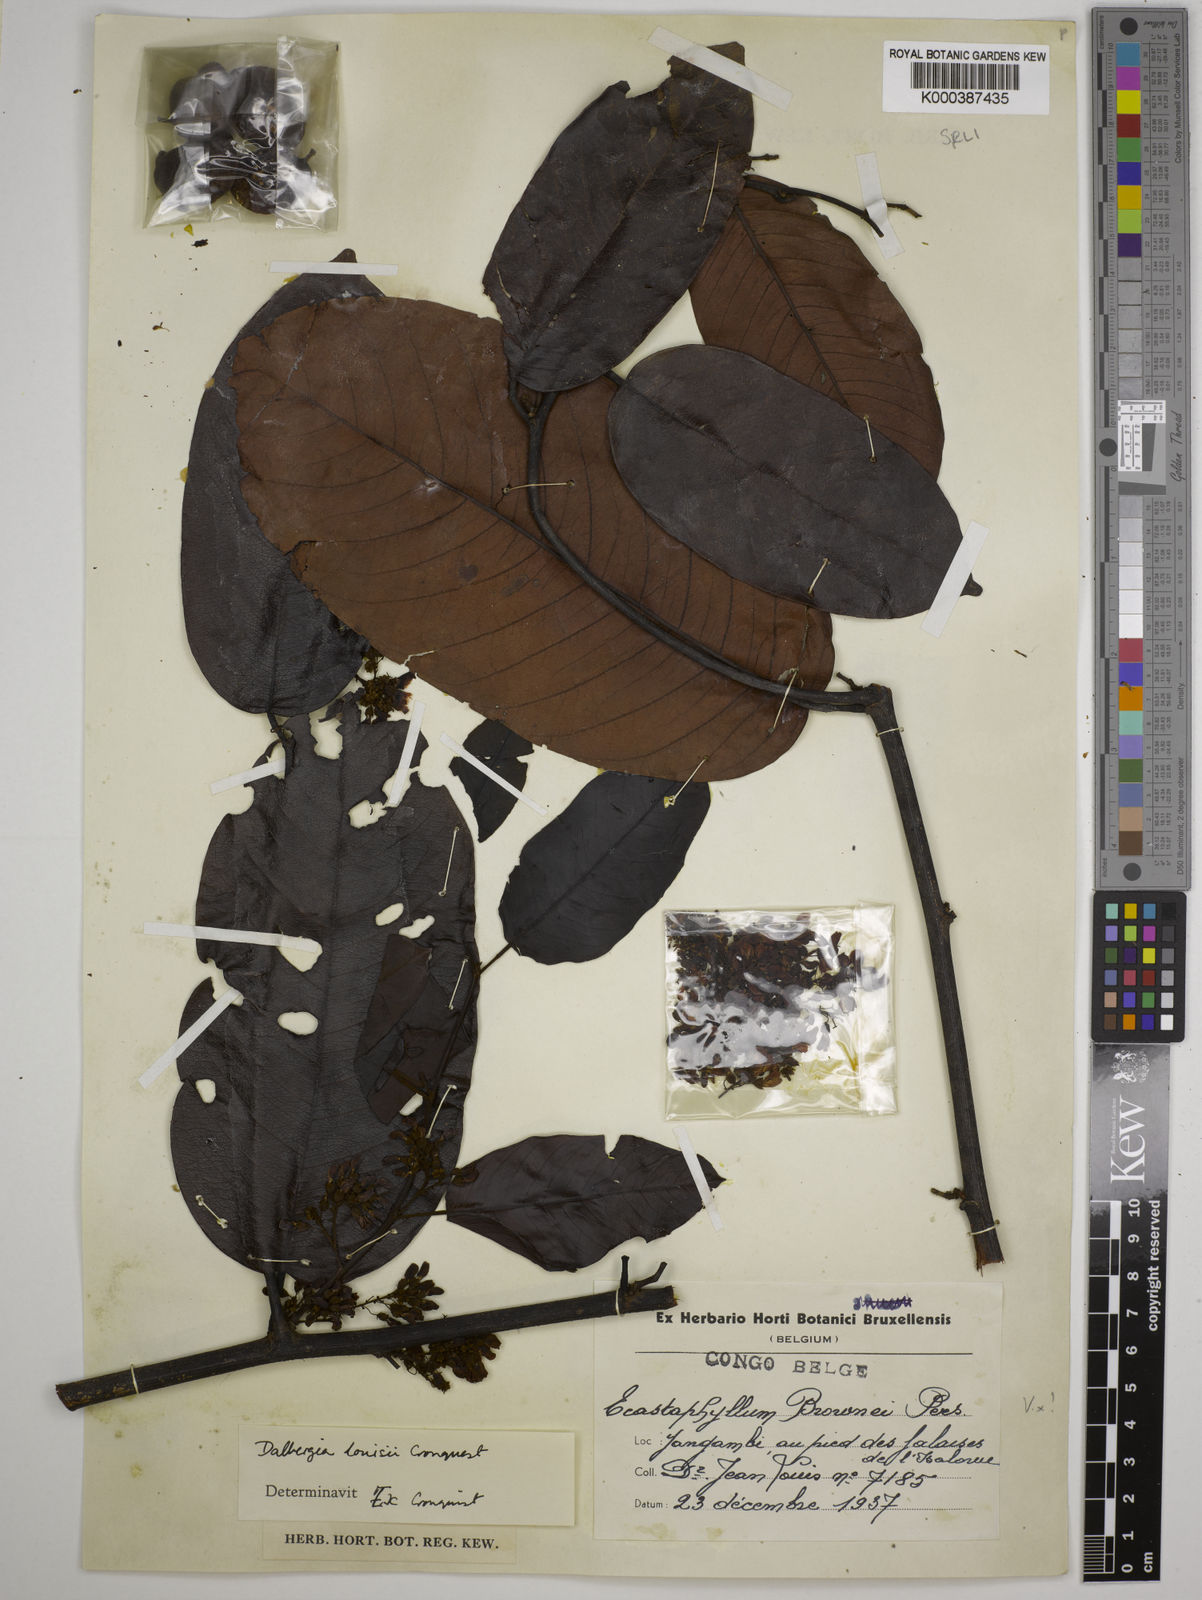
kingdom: Plantae
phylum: Tracheophyta
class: Magnoliopsida
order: Fabales
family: Fabaceae
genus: Dalbergia
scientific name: Dalbergia louisii
